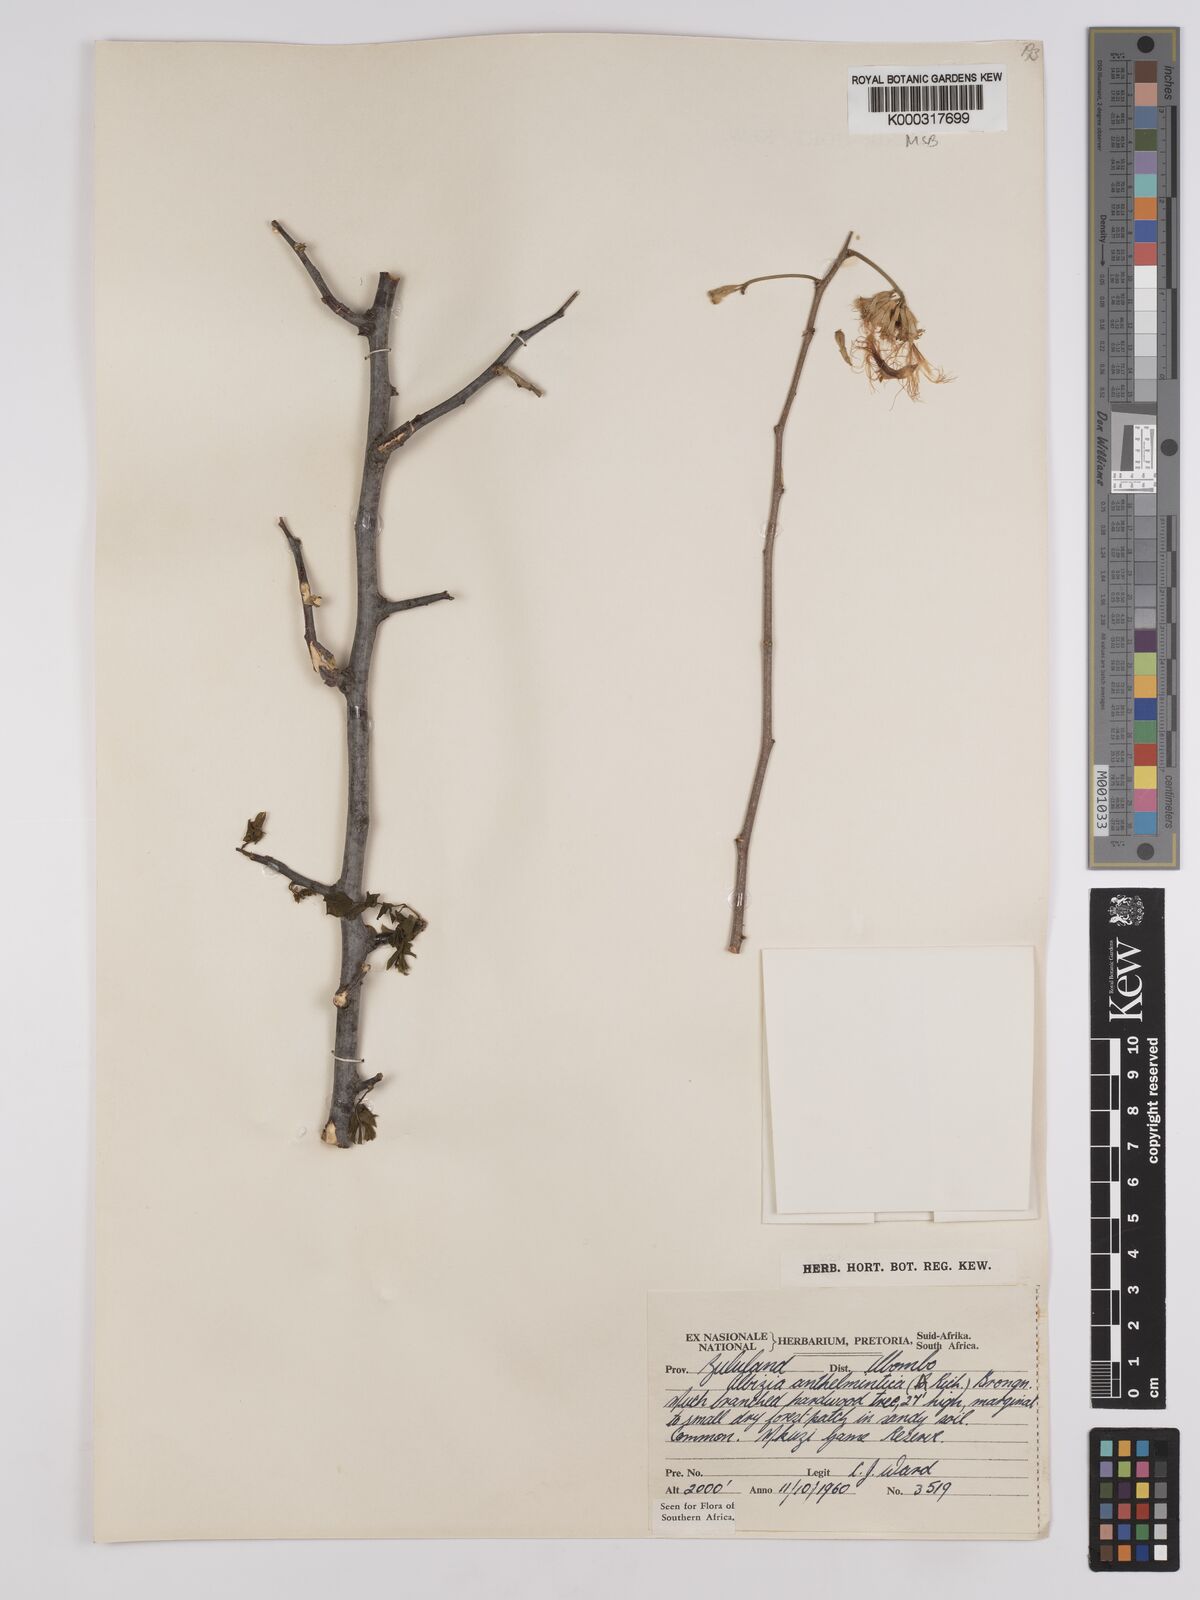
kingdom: Plantae
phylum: Tracheophyta
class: Magnoliopsida
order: Fabales
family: Fabaceae
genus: Albizia
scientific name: Albizia anthelmintica
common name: Worm-bark false-thorn
